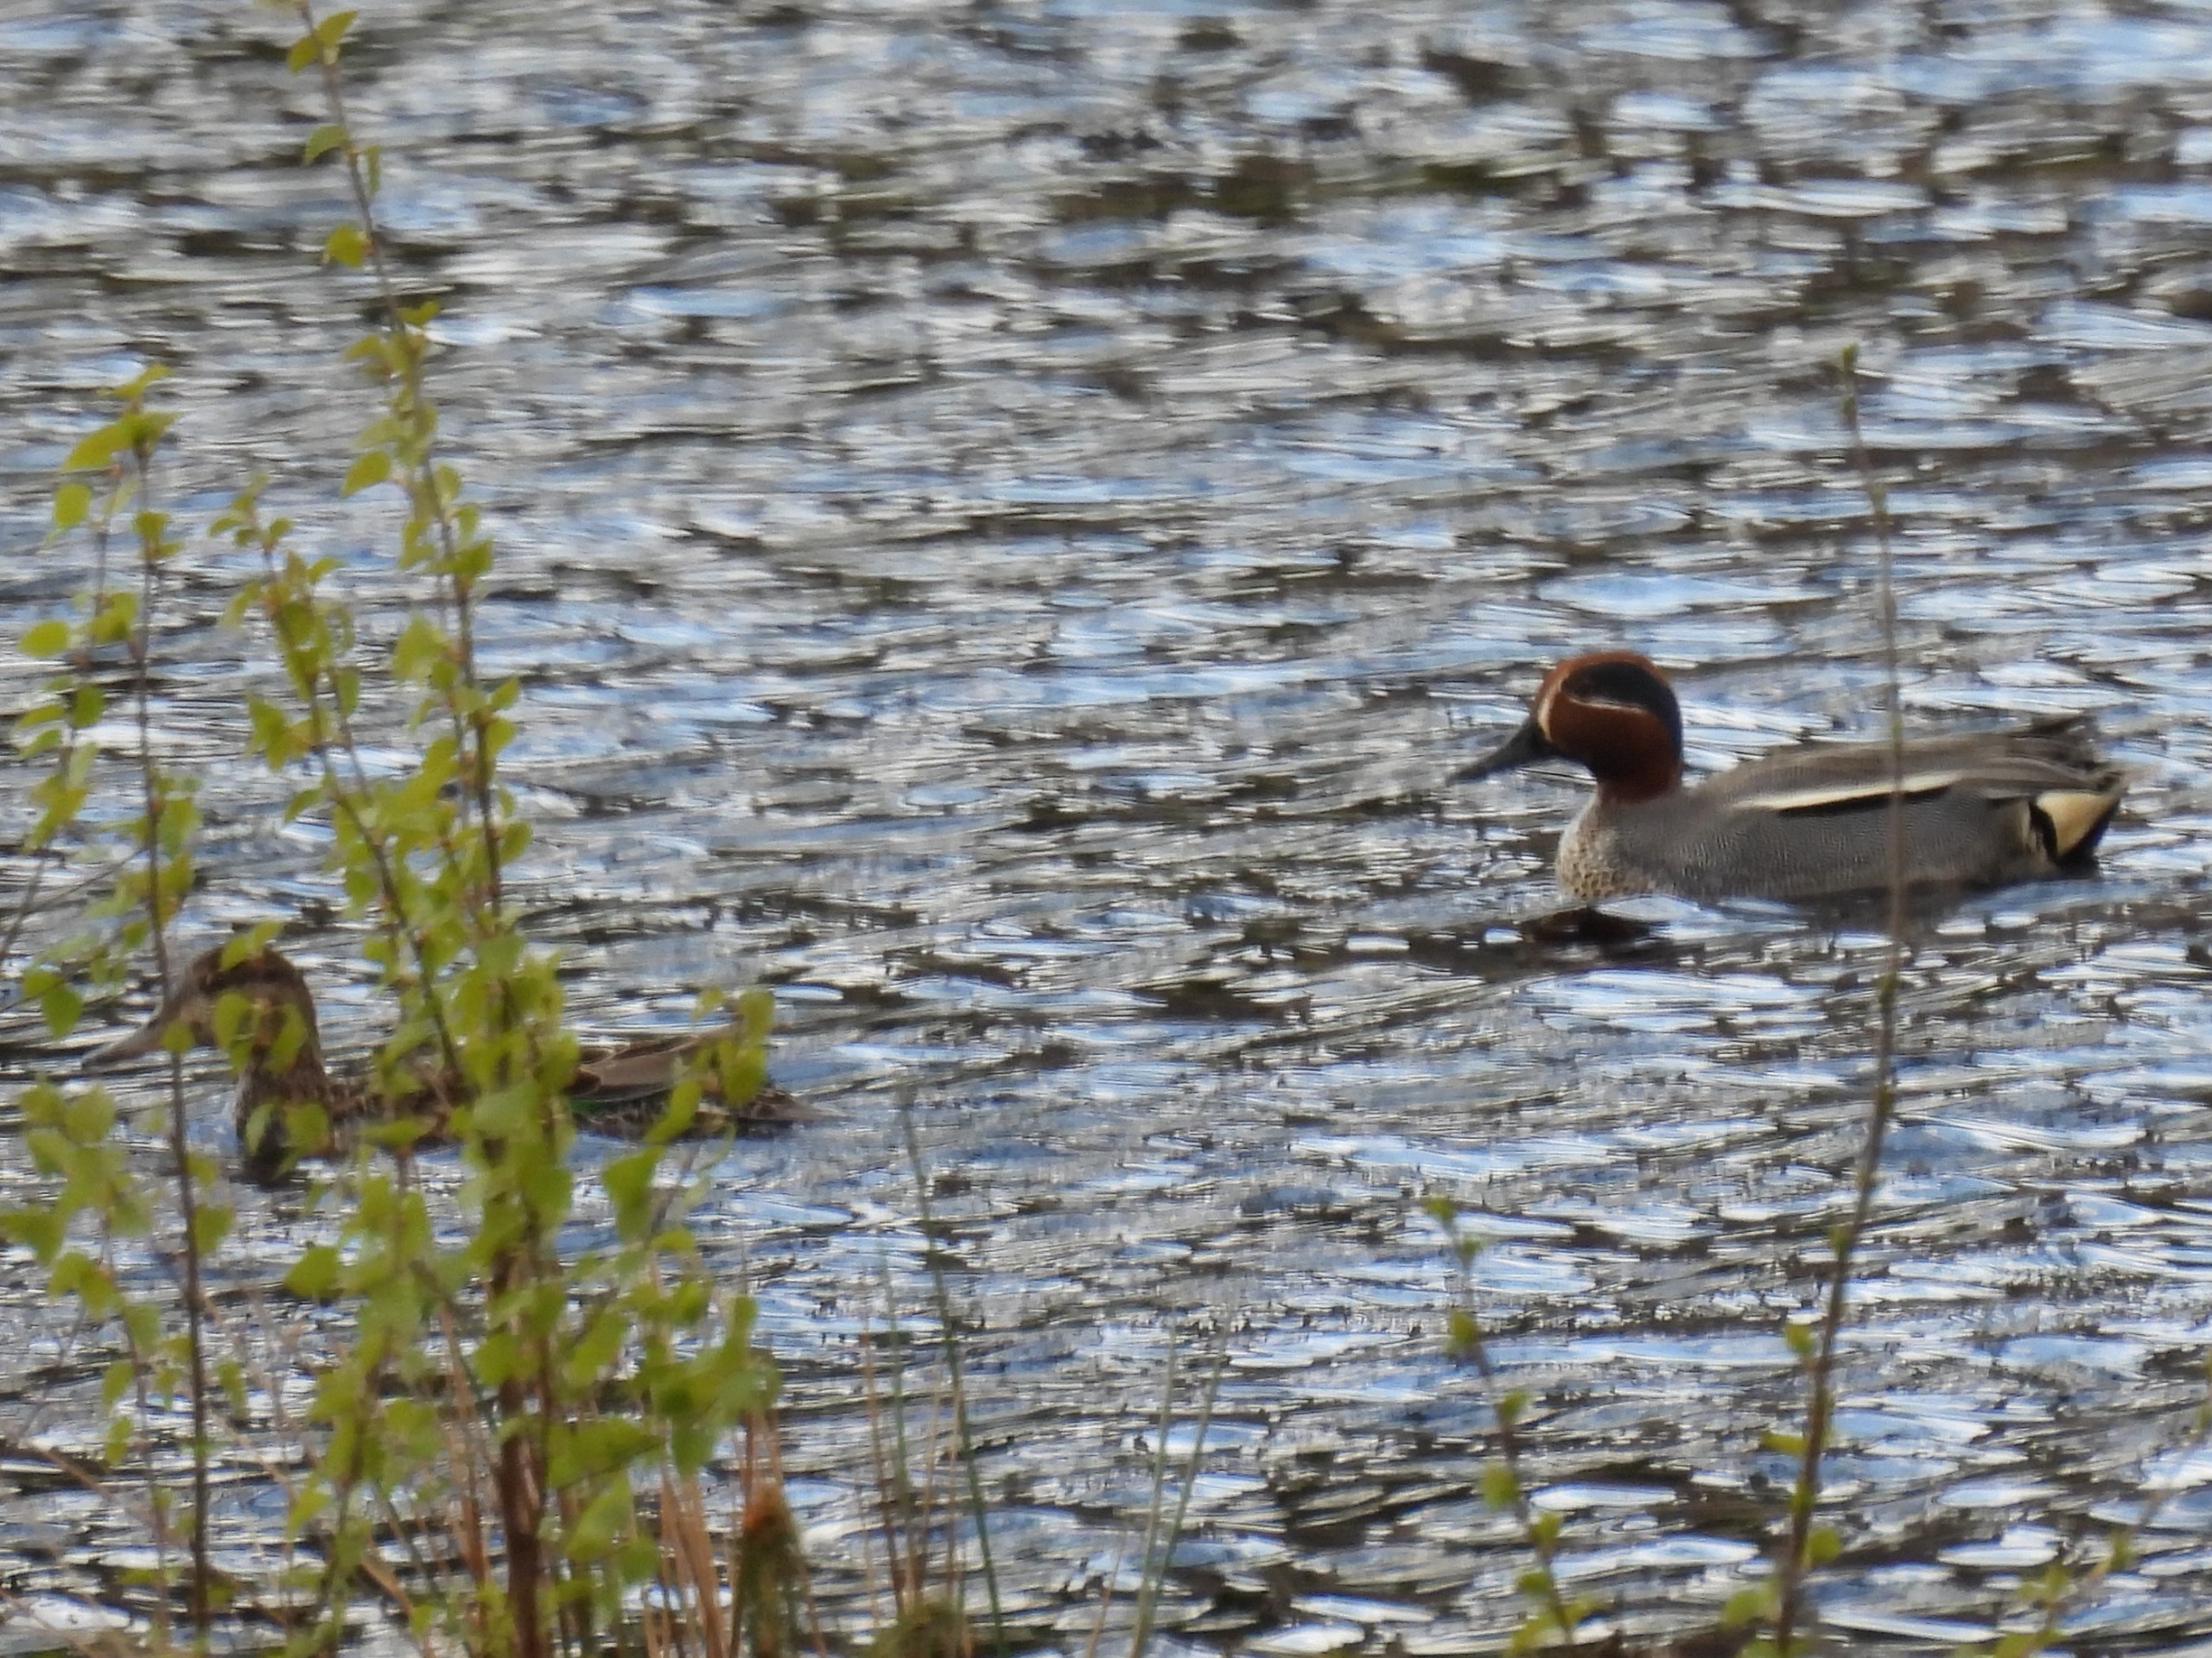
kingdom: Animalia
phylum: Chordata
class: Aves
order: Anseriformes
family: Anatidae
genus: Anas
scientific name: Anas crecca
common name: Krikand
